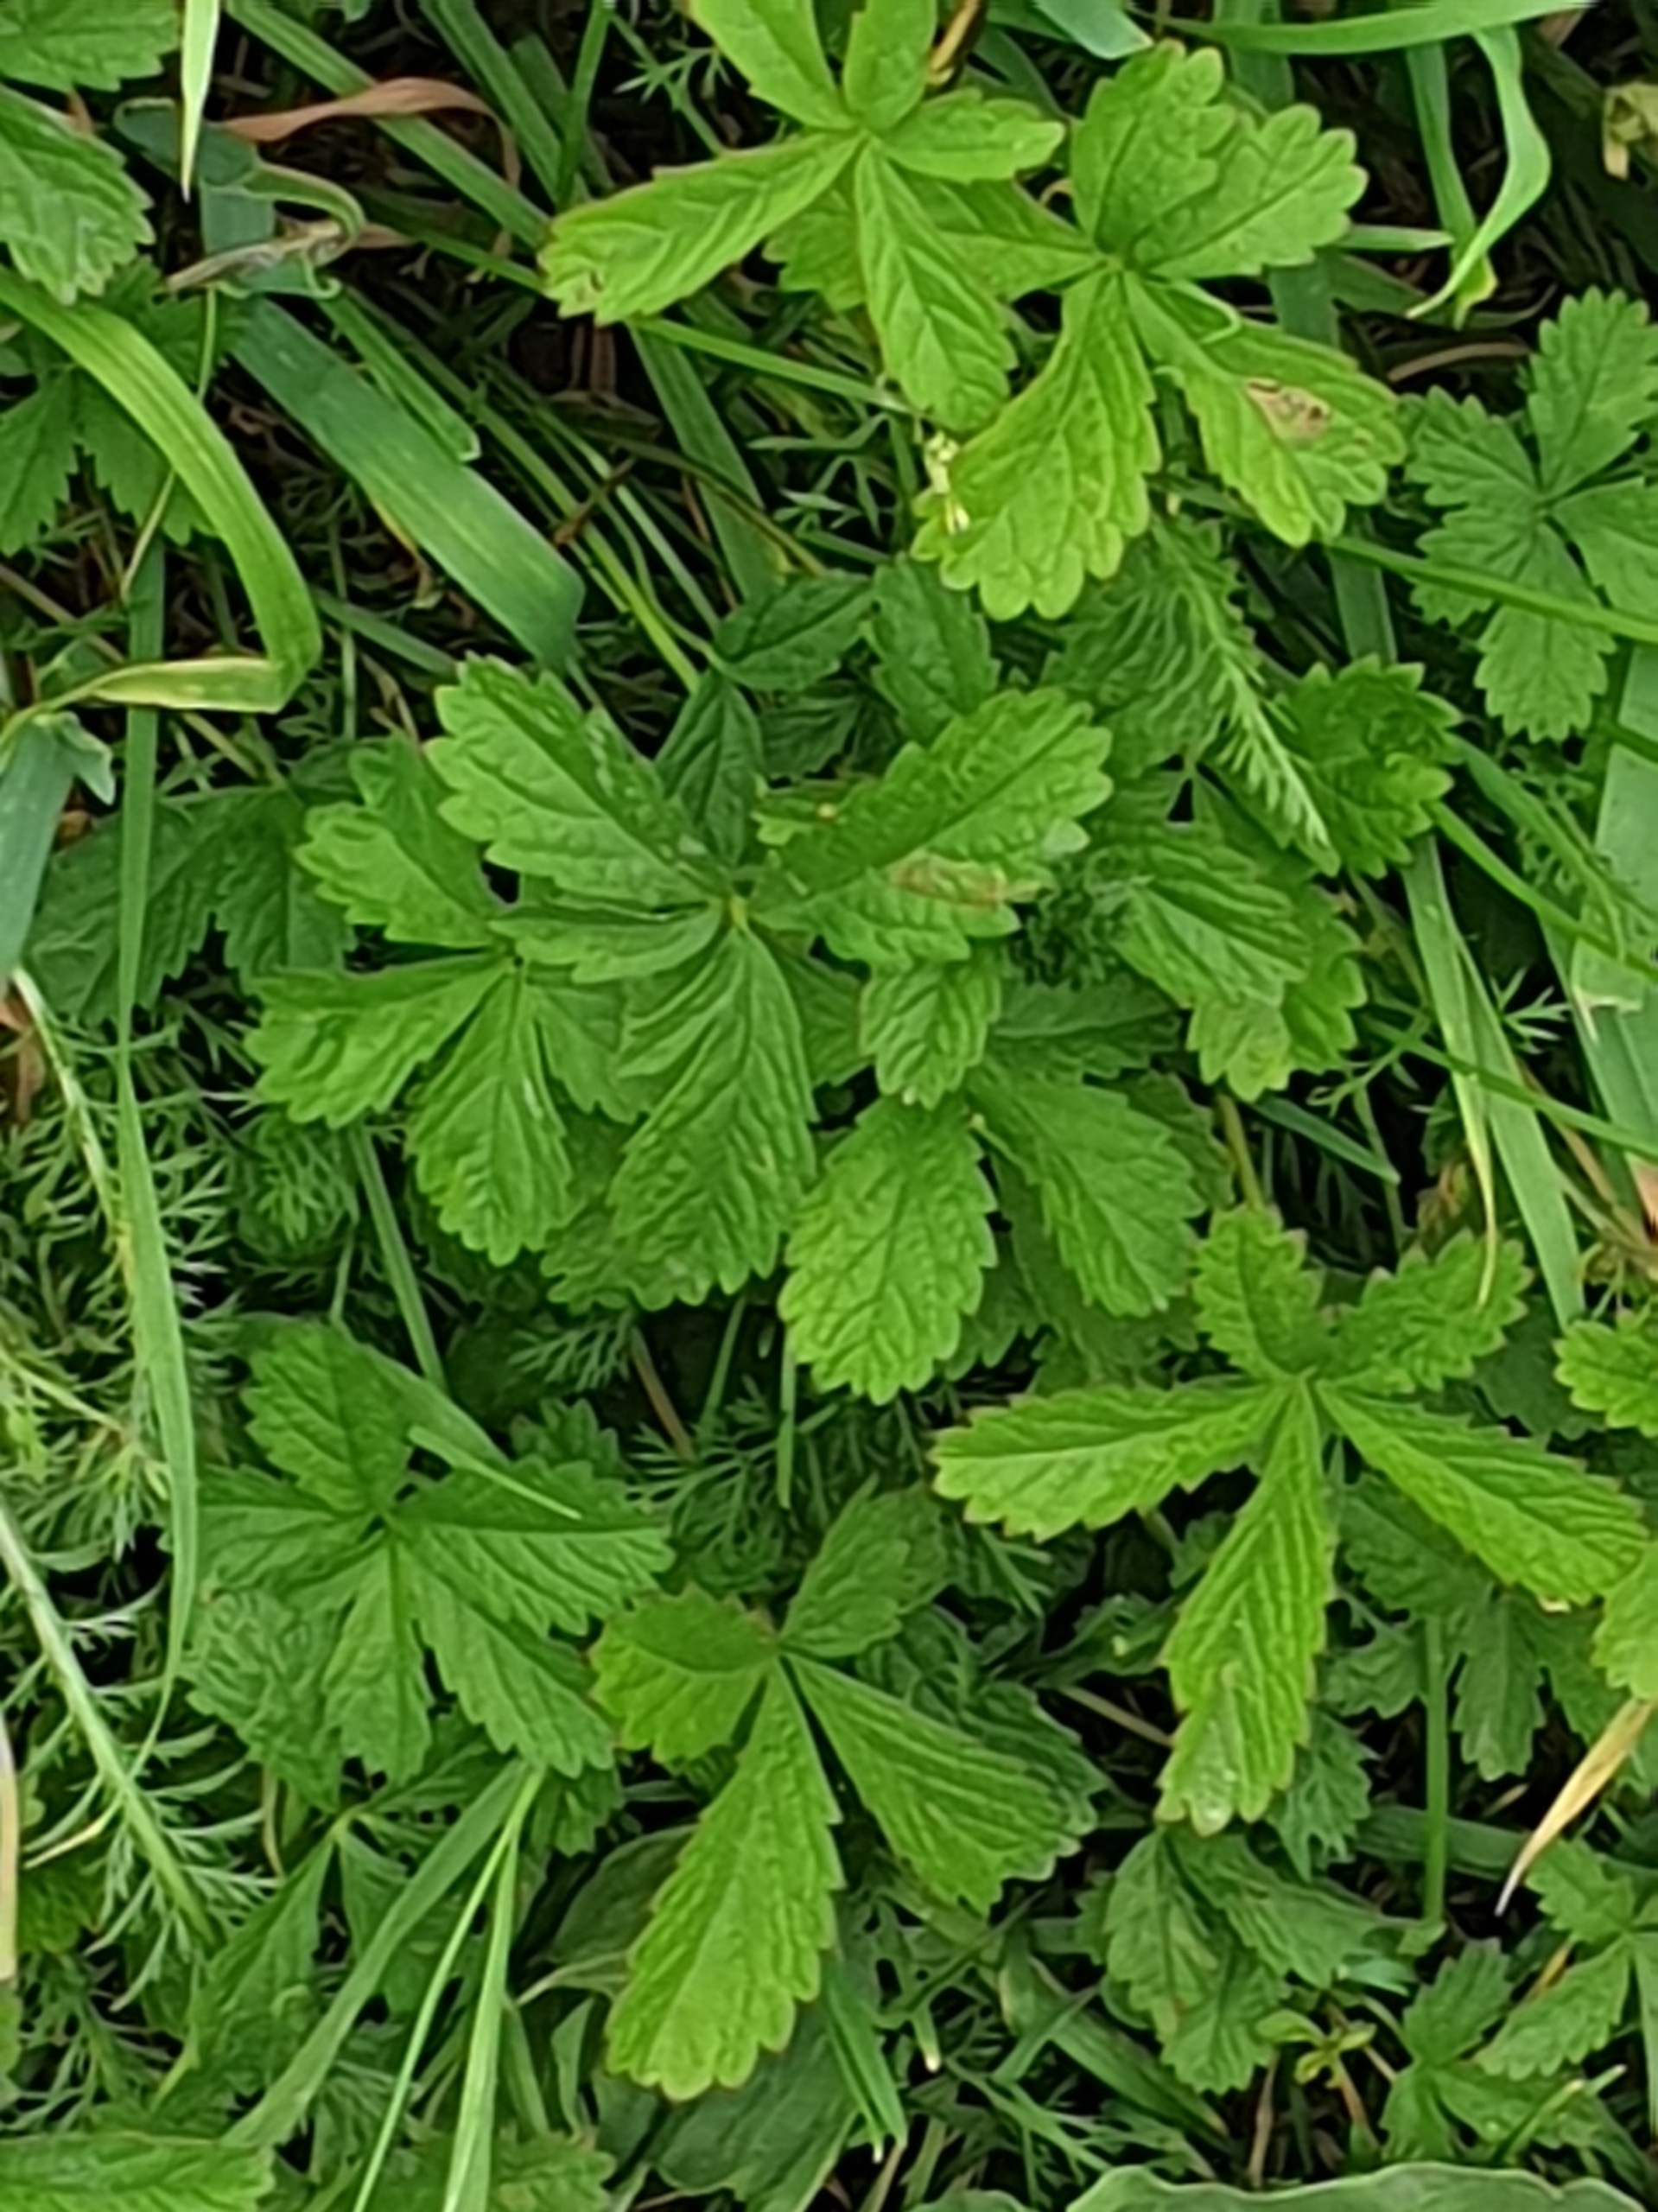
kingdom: Plantae
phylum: Tracheophyta
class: Magnoliopsida
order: Rosales
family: Rosaceae
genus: Potentilla
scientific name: Potentilla reptans
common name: Krybende potentil
